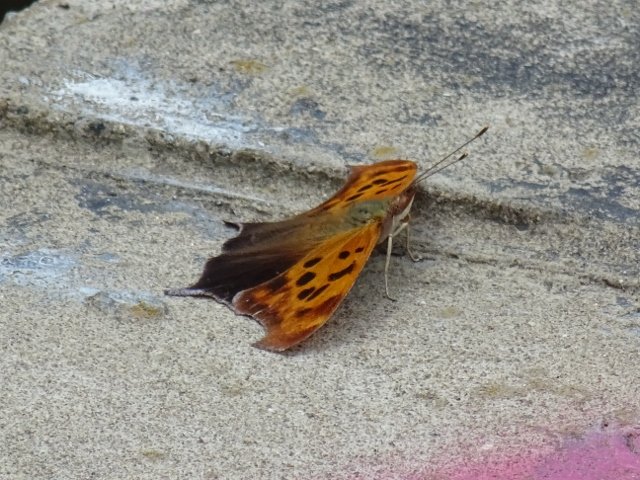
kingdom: Animalia
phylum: Arthropoda
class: Insecta
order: Lepidoptera
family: Nymphalidae
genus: Polygonia
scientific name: Polygonia interrogationis
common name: Question Mark
